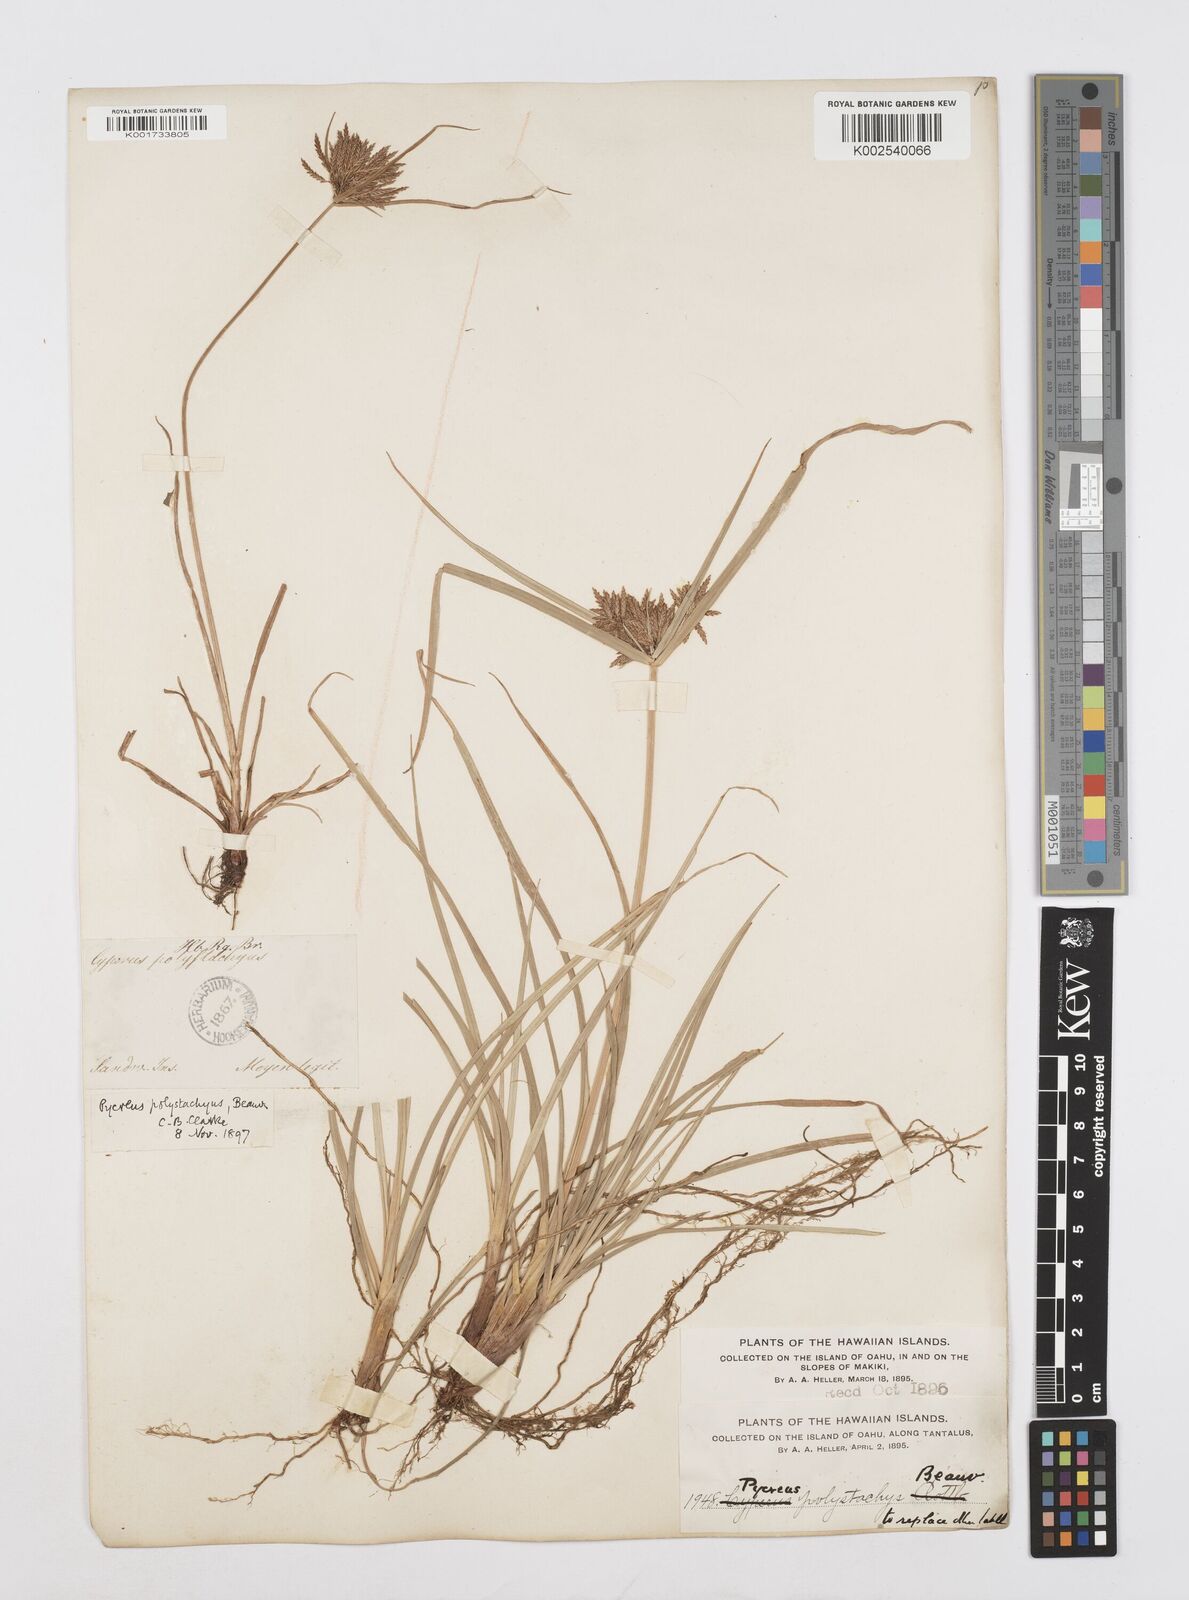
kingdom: Plantae
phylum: Tracheophyta
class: Liliopsida
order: Poales
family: Cyperaceae
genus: Cyperus
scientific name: Cyperus polystachyos
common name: Bunchy flat sedge
